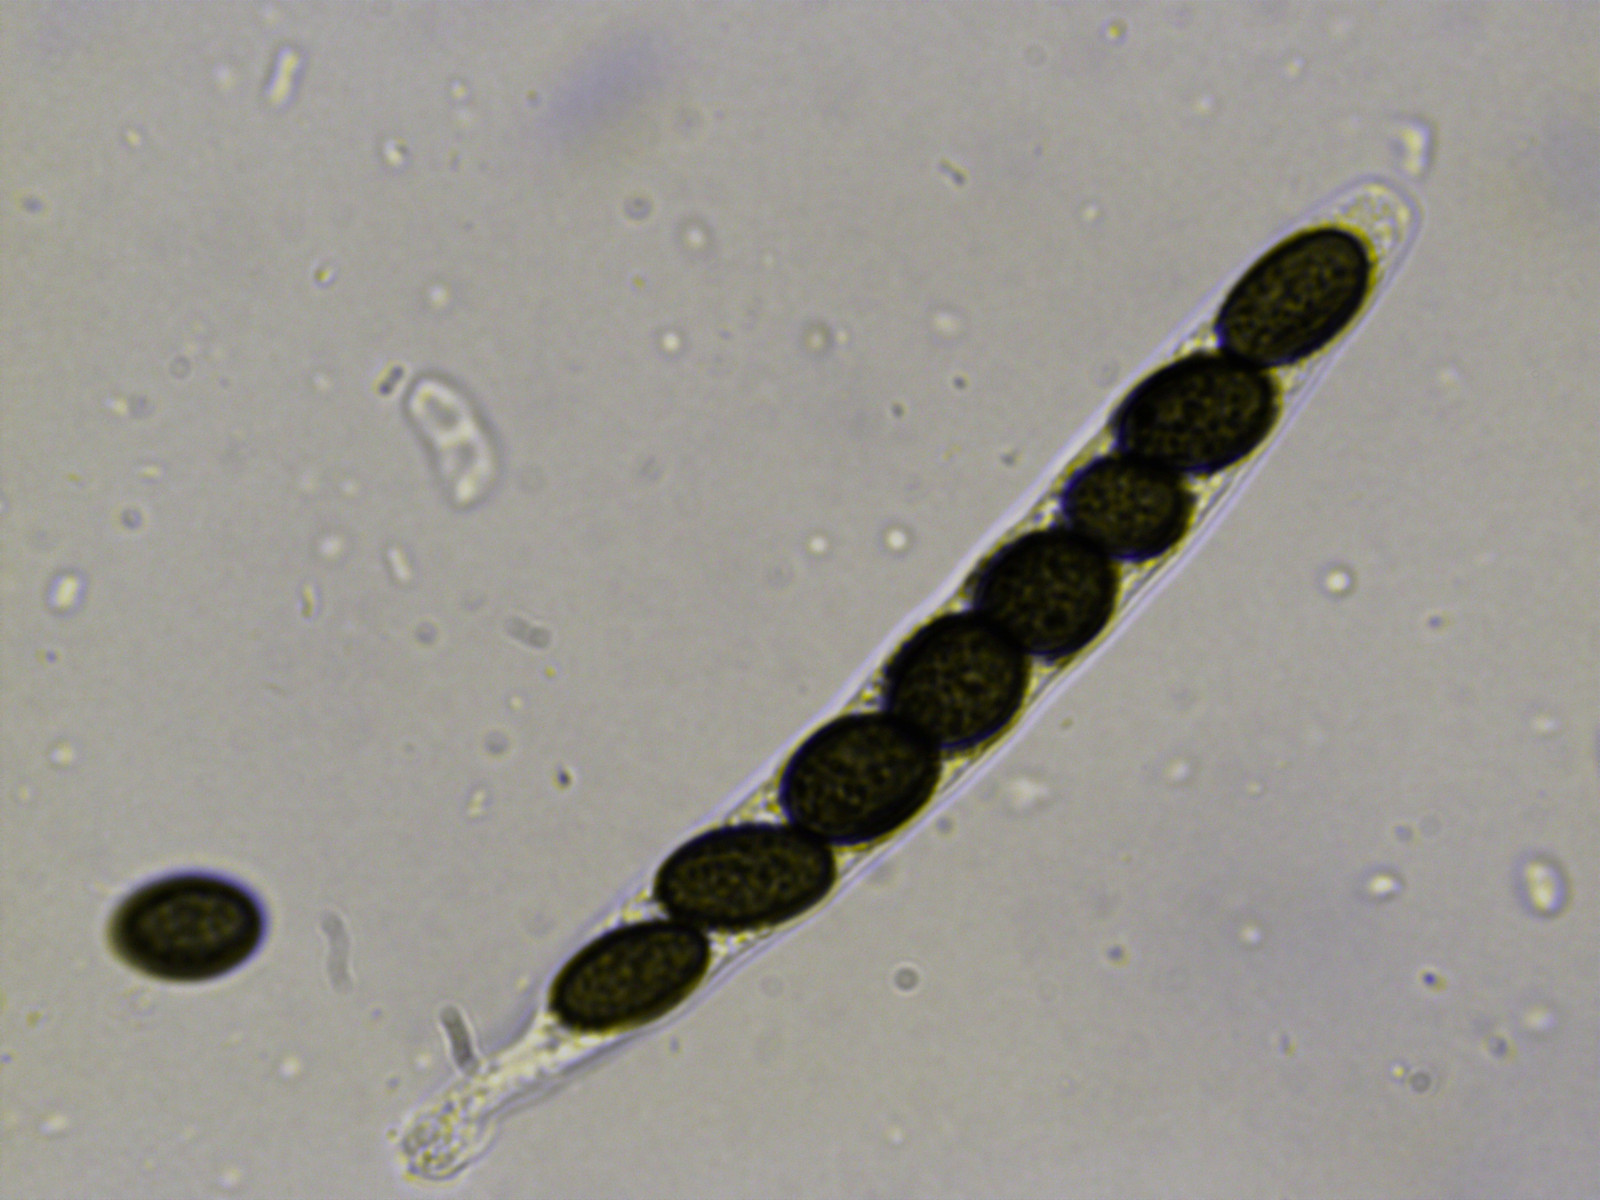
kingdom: Fungi
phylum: Ascomycota
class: Sordariomycetes
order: Coniochaetales
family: Coniochaetaceae
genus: Coniochaeta
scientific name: Coniochaeta pulveracea
